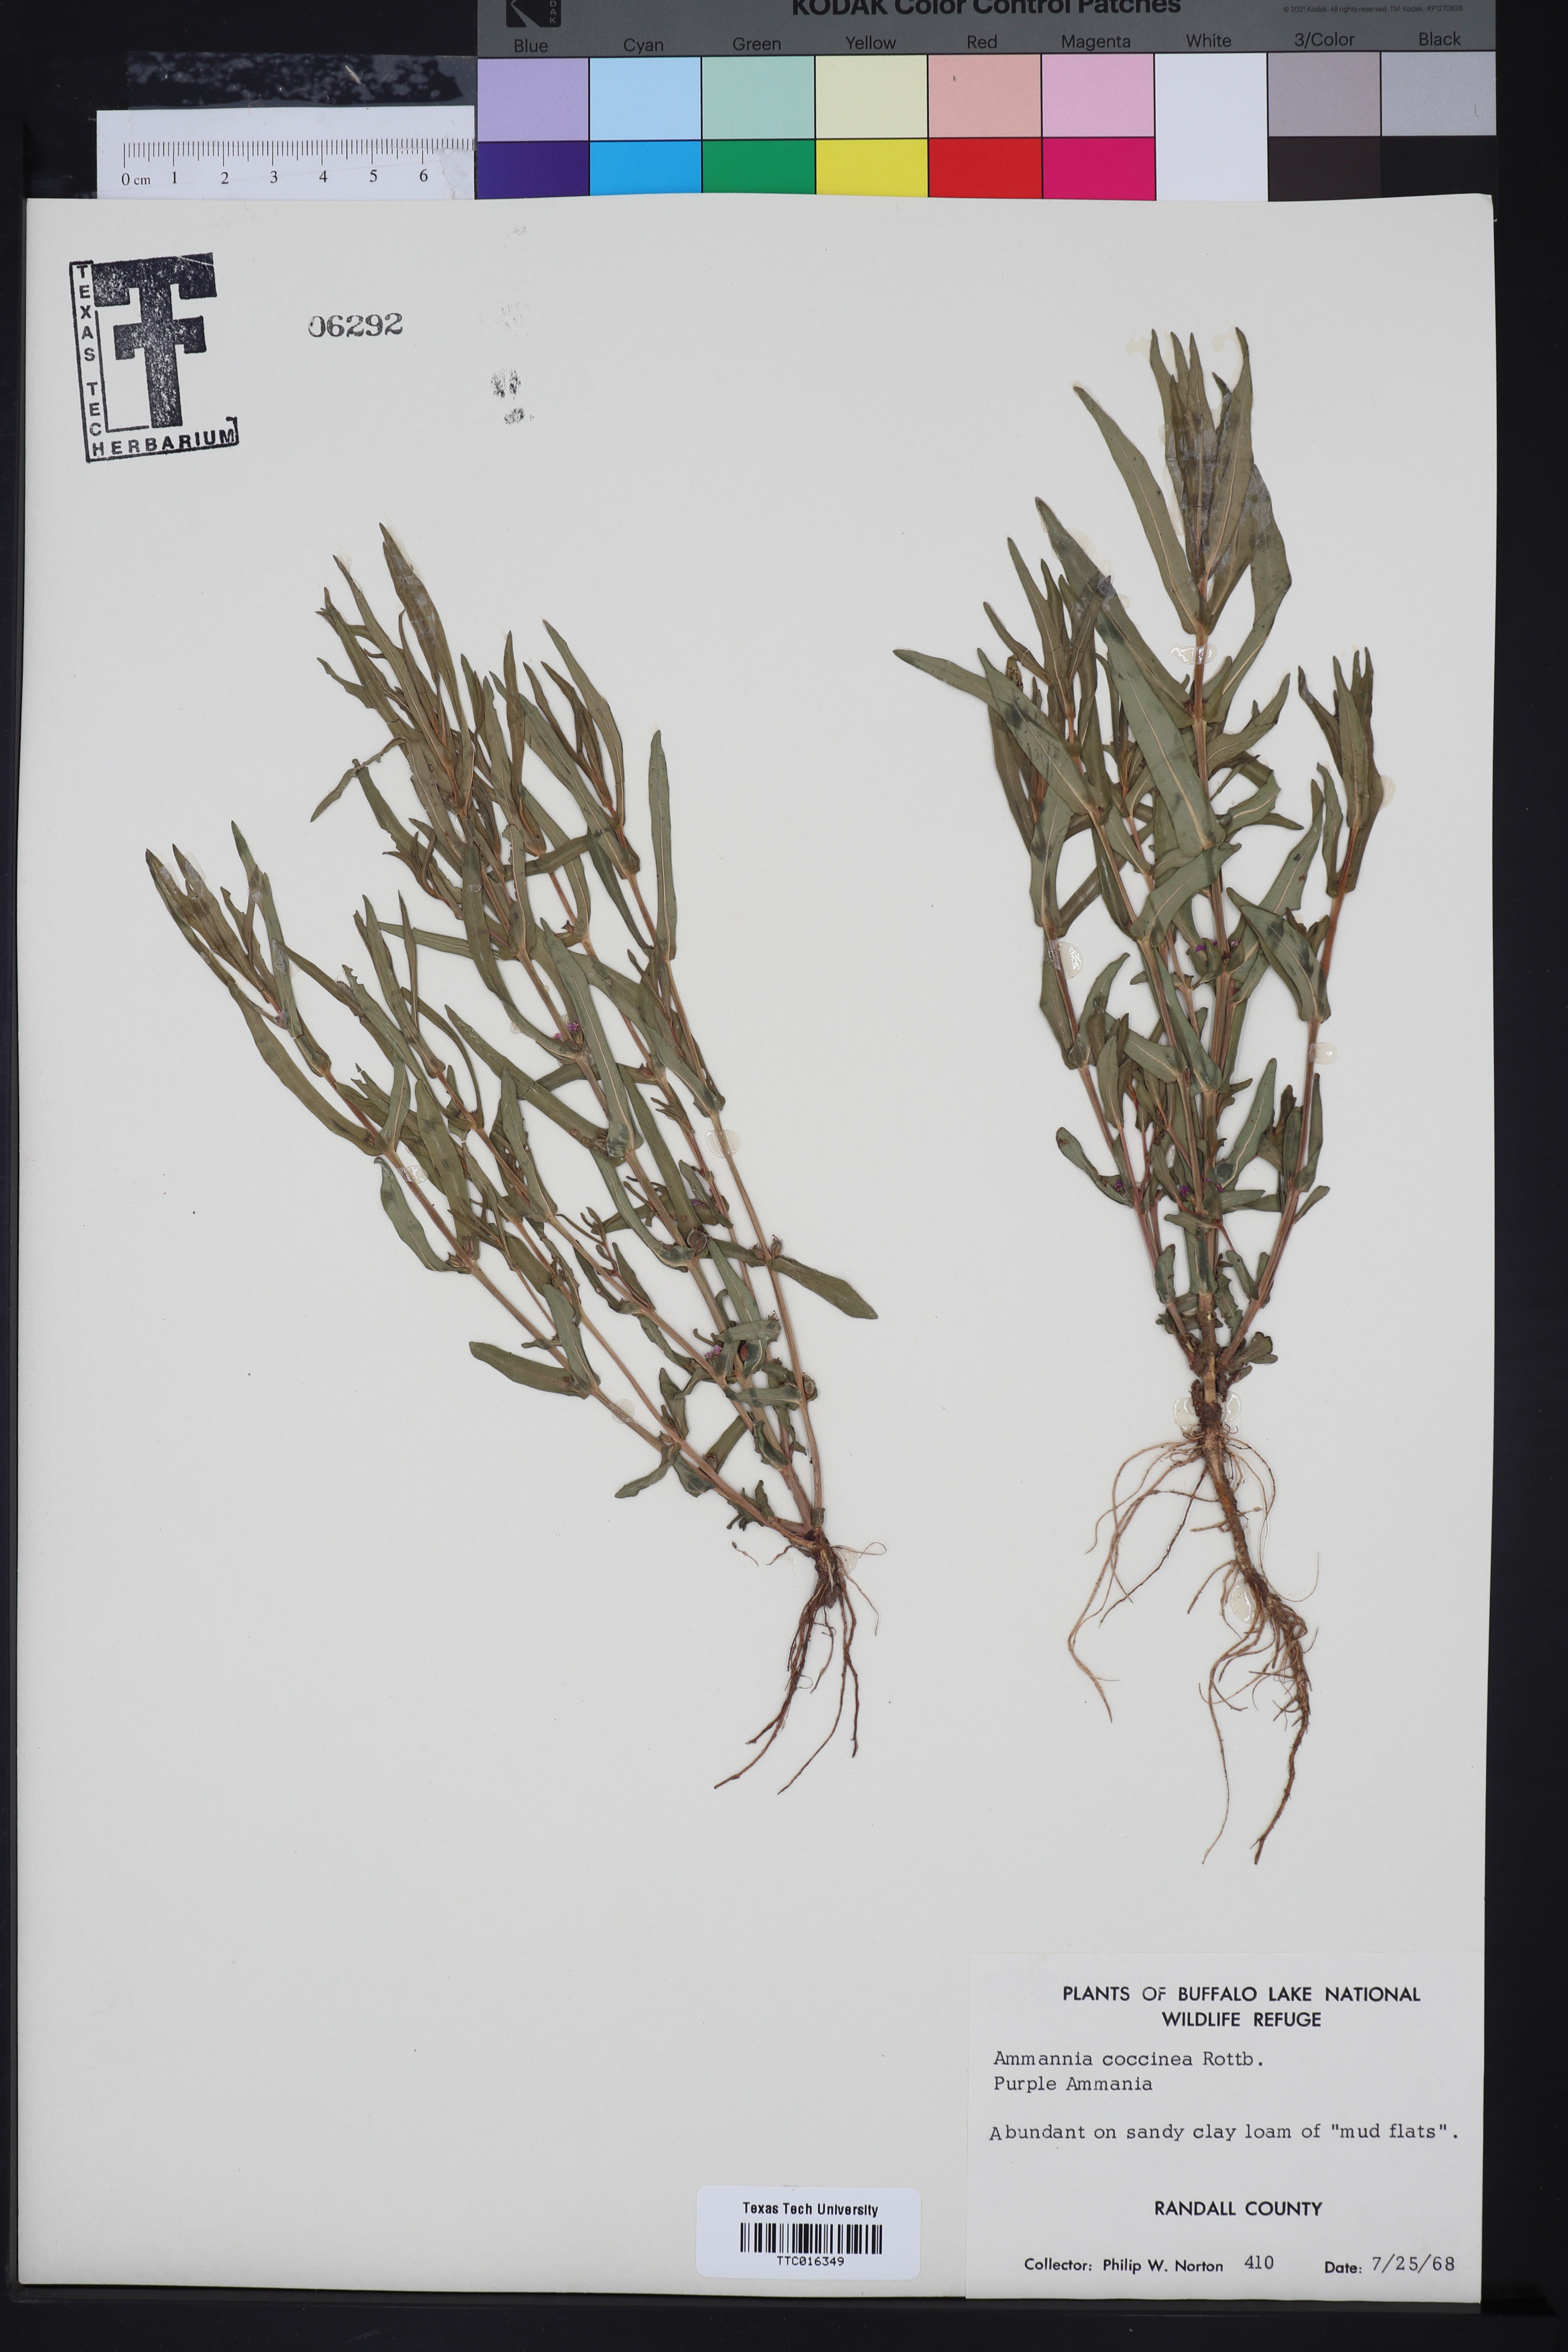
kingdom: Plantae
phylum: Tracheophyta
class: Magnoliopsida
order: Myrtales
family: Lythraceae
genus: Ammannia
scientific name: Ammannia coccinea
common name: Valley redstem
